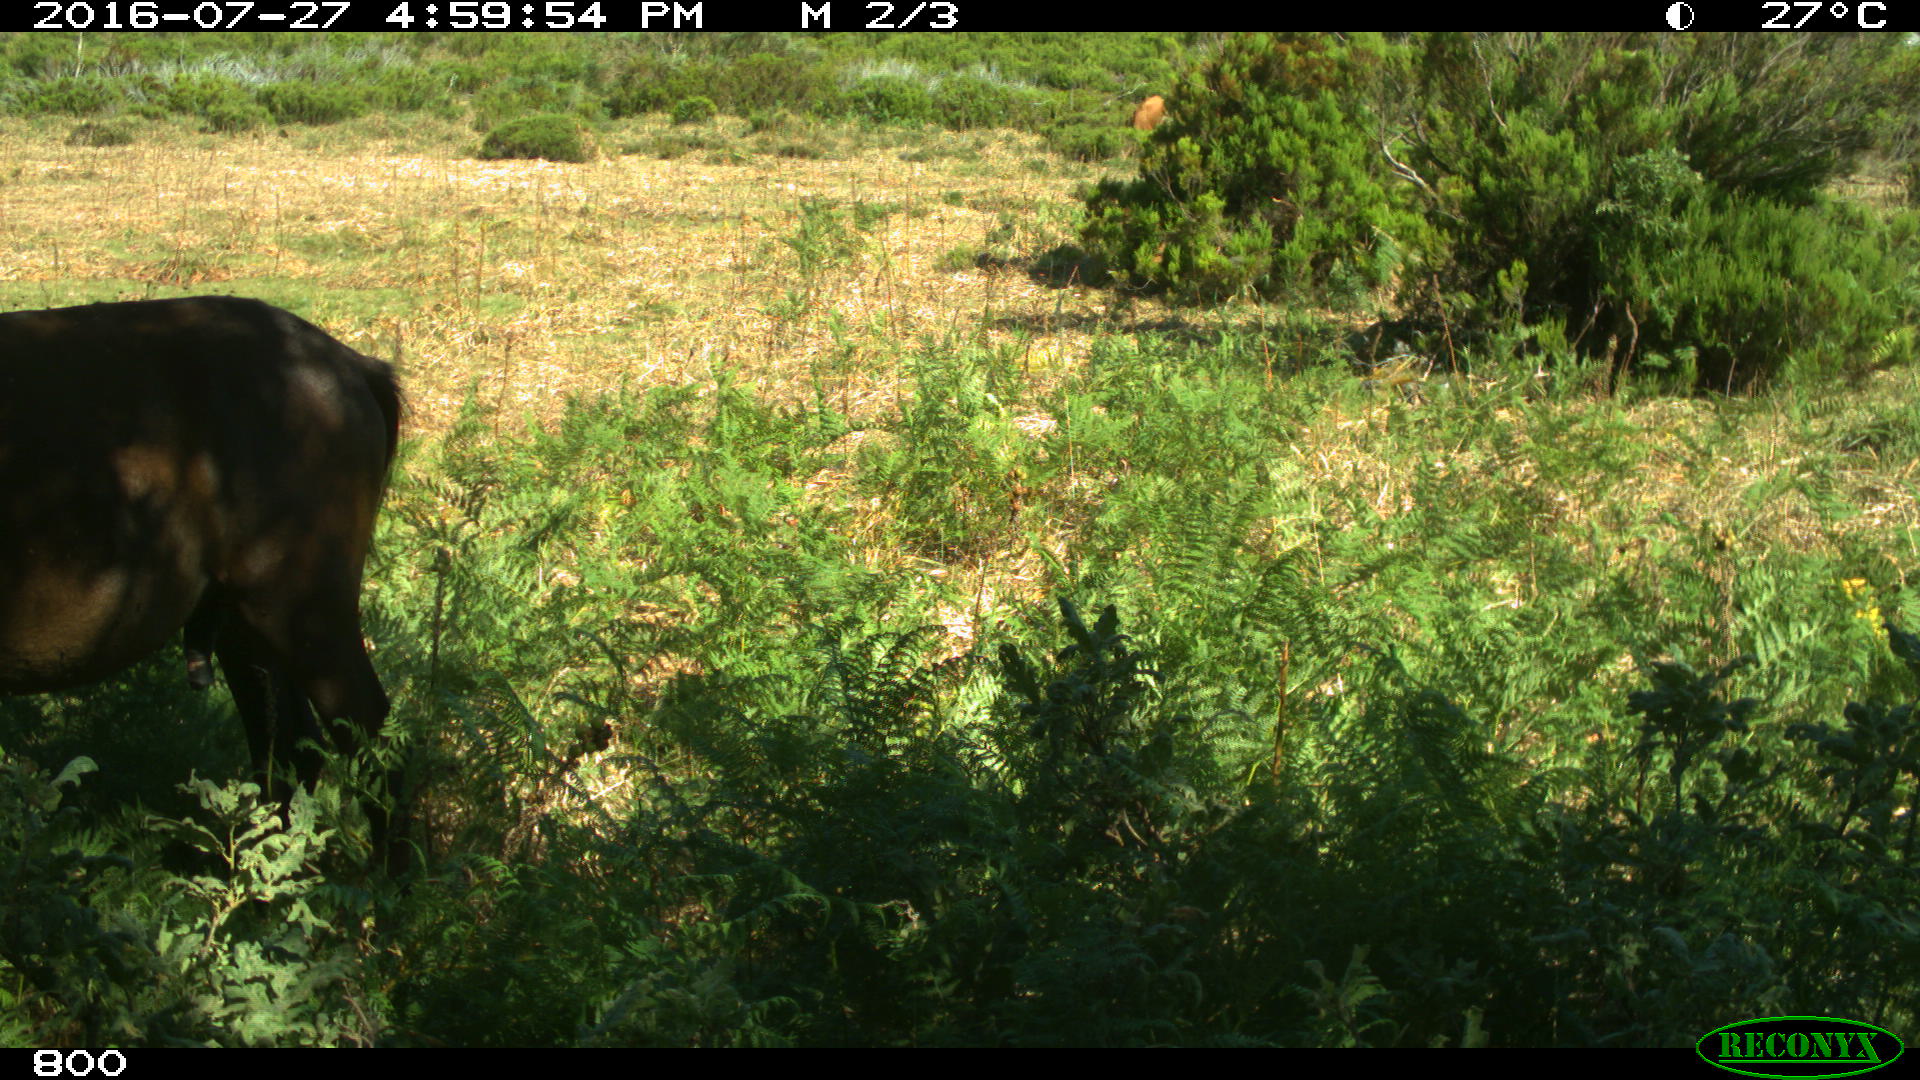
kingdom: Animalia
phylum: Chordata
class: Mammalia
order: Perissodactyla
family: Equidae
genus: Equus
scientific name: Equus caballus
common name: Horse
